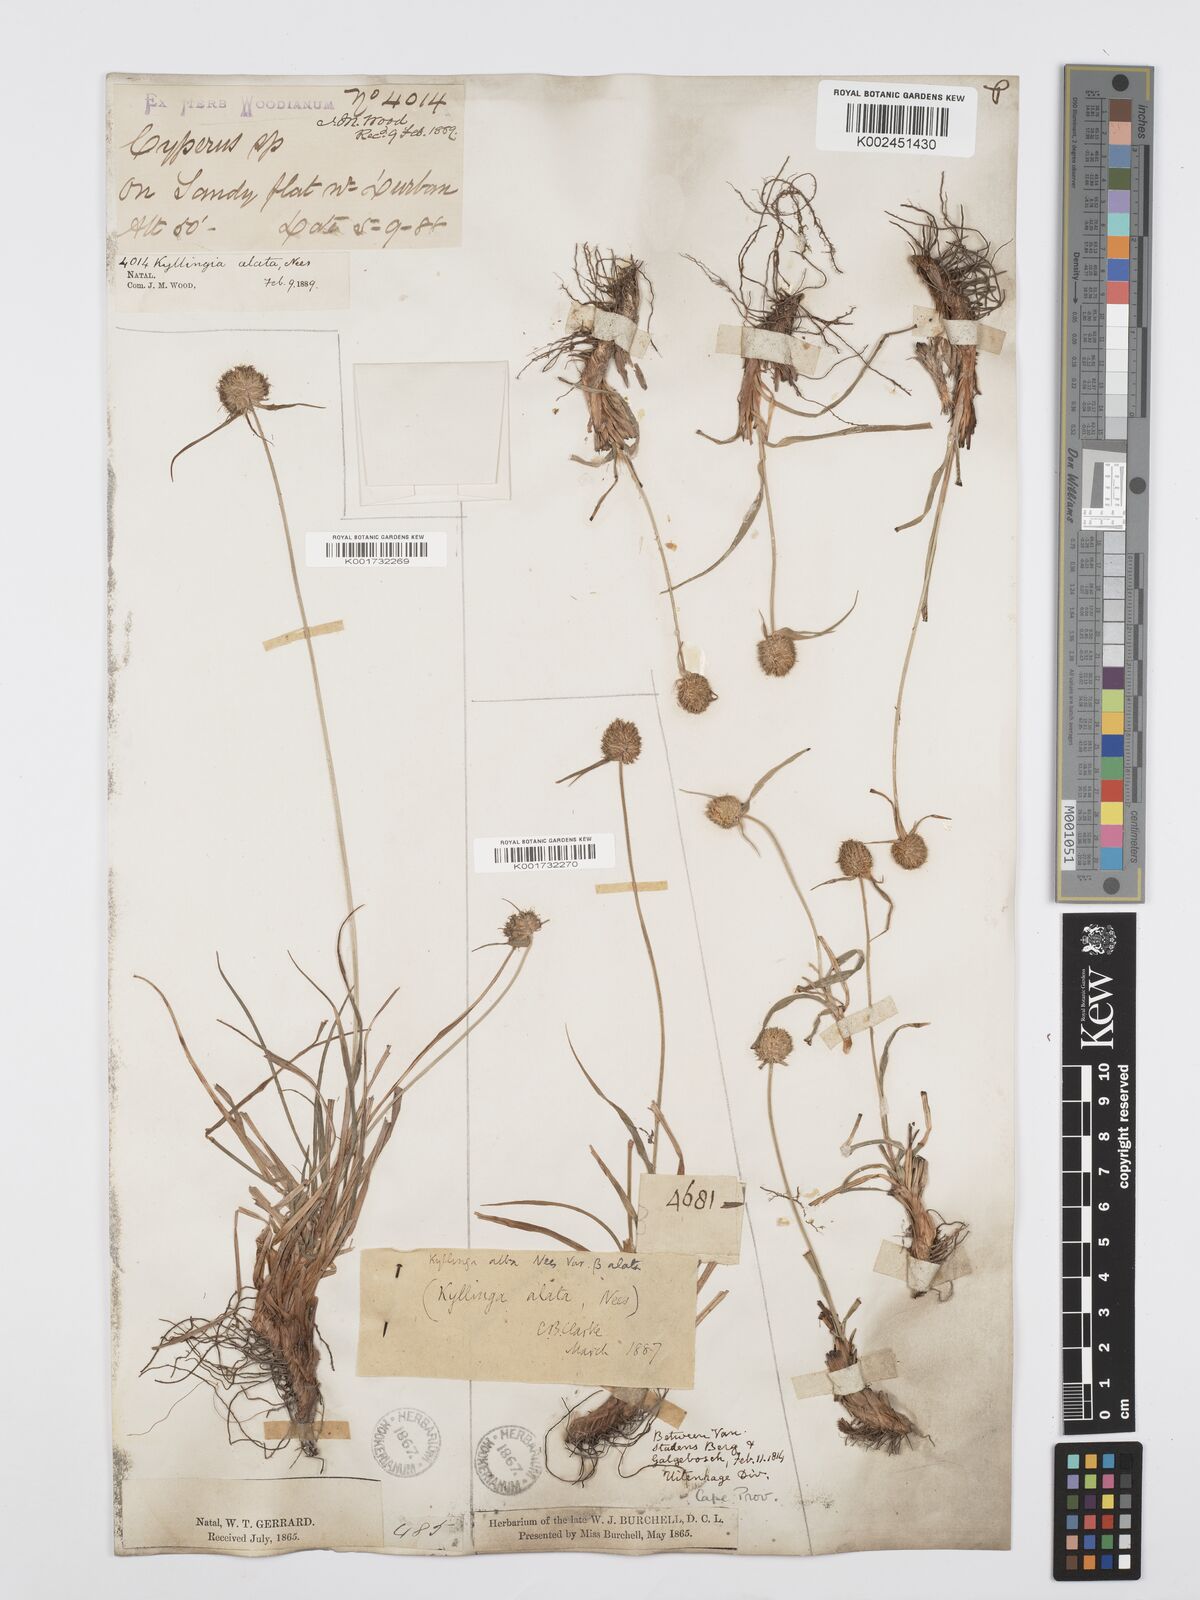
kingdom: Plantae
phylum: Tracheophyta
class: Liliopsida
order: Poales
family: Cyperaceae
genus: Cyperus
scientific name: Cyperus alatus
